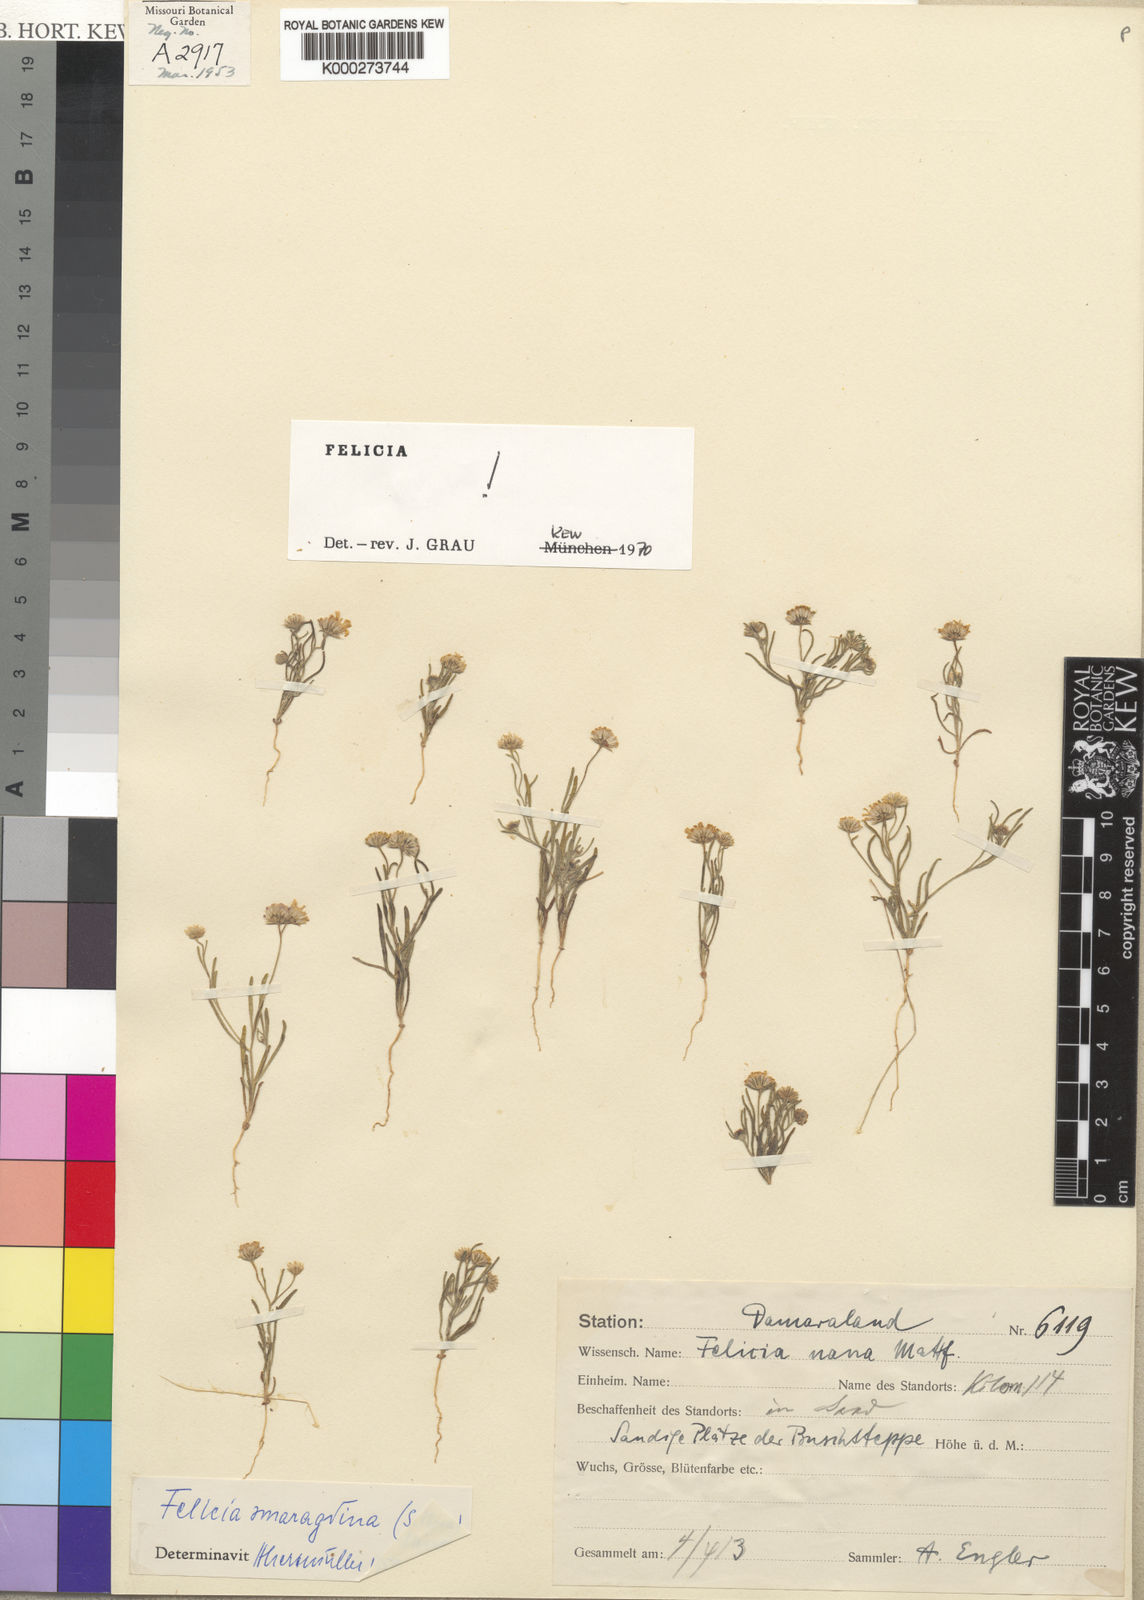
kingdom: Plantae
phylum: Tracheophyta
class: Magnoliopsida
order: Asterales
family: Asteraceae
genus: Felicia
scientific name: Felicia smaragdina
